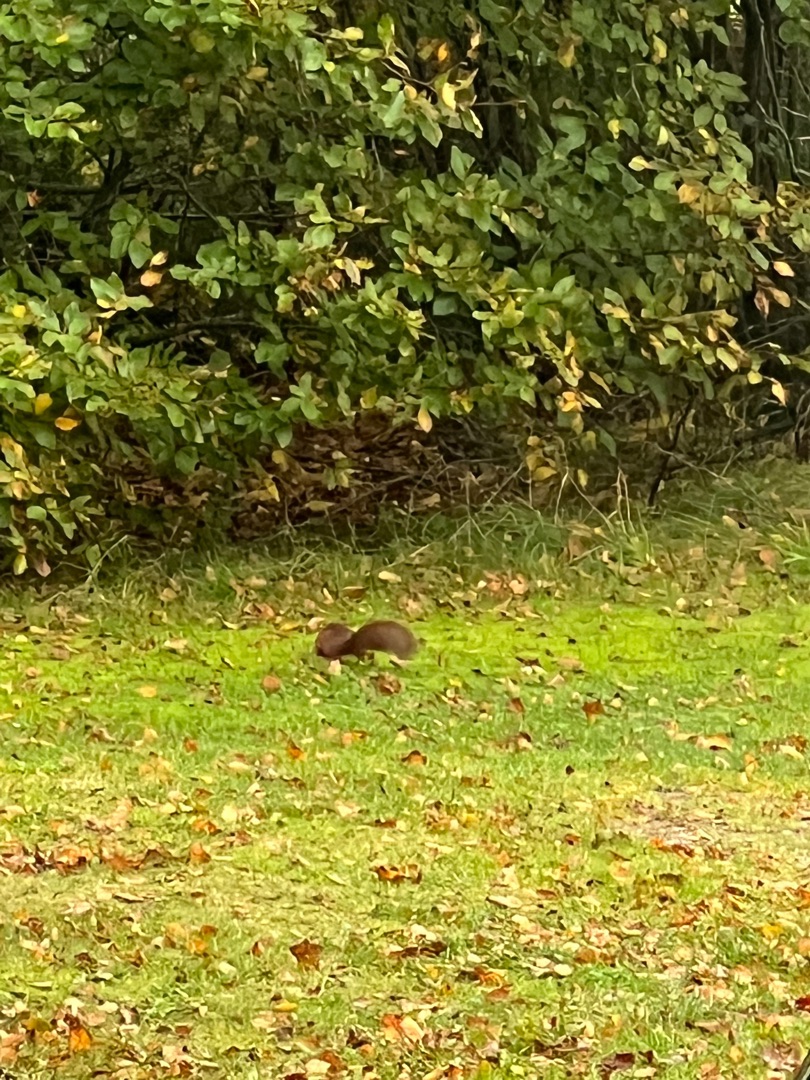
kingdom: Animalia
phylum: Chordata
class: Mammalia
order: Rodentia
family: Sciuridae
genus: Sciurus
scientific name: Sciurus vulgaris
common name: Egern
